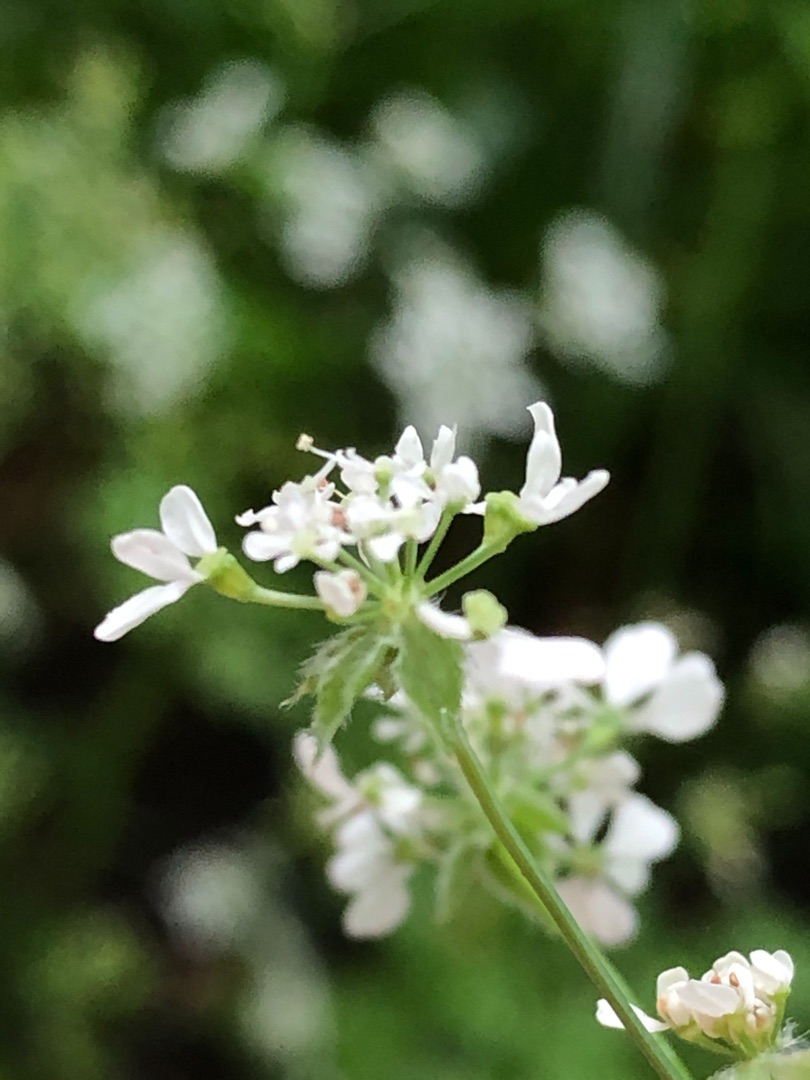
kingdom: Plantae
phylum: Tracheophyta
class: Magnoliopsida
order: Apiales
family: Apiaceae
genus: Anthriscus
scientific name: Anthriscus sylvestris
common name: Vild kørvel
